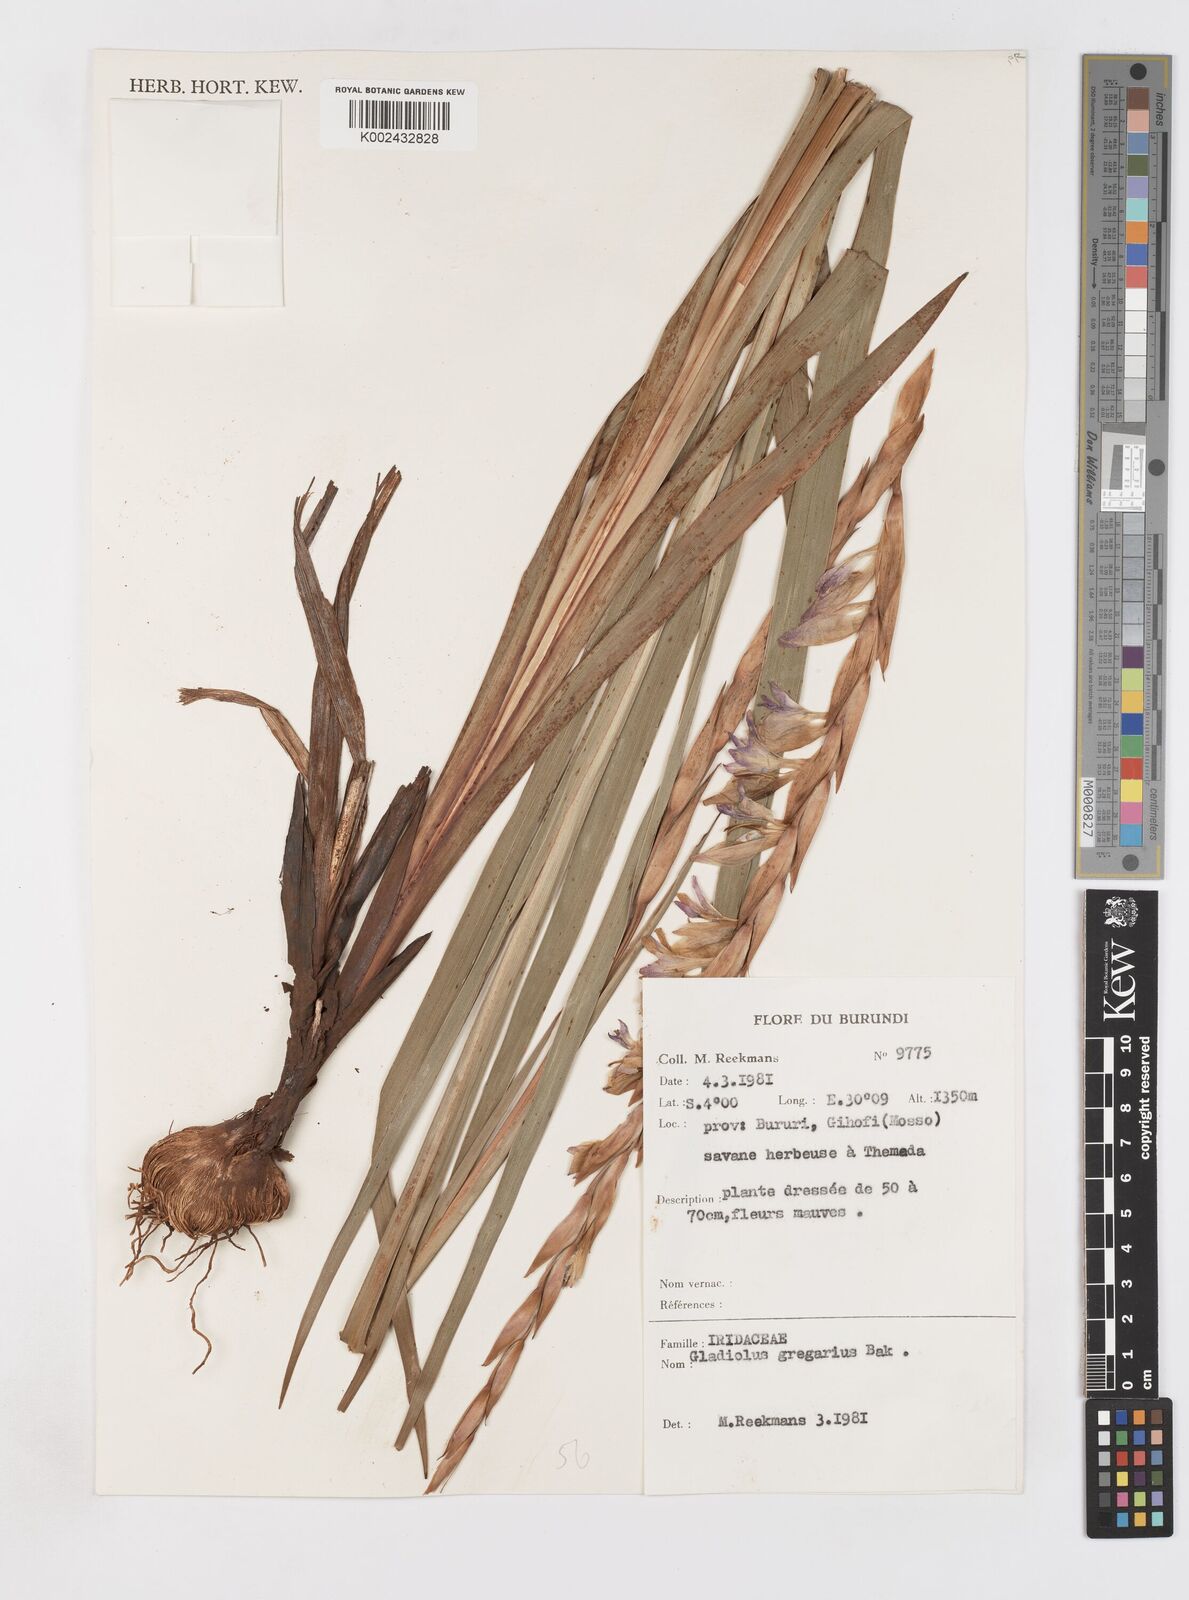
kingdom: Plantae
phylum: Tracheophyta
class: Liliopsida
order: Asparagales
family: Iridaceae
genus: Gladiolus
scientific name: Gladiolus gregarius
